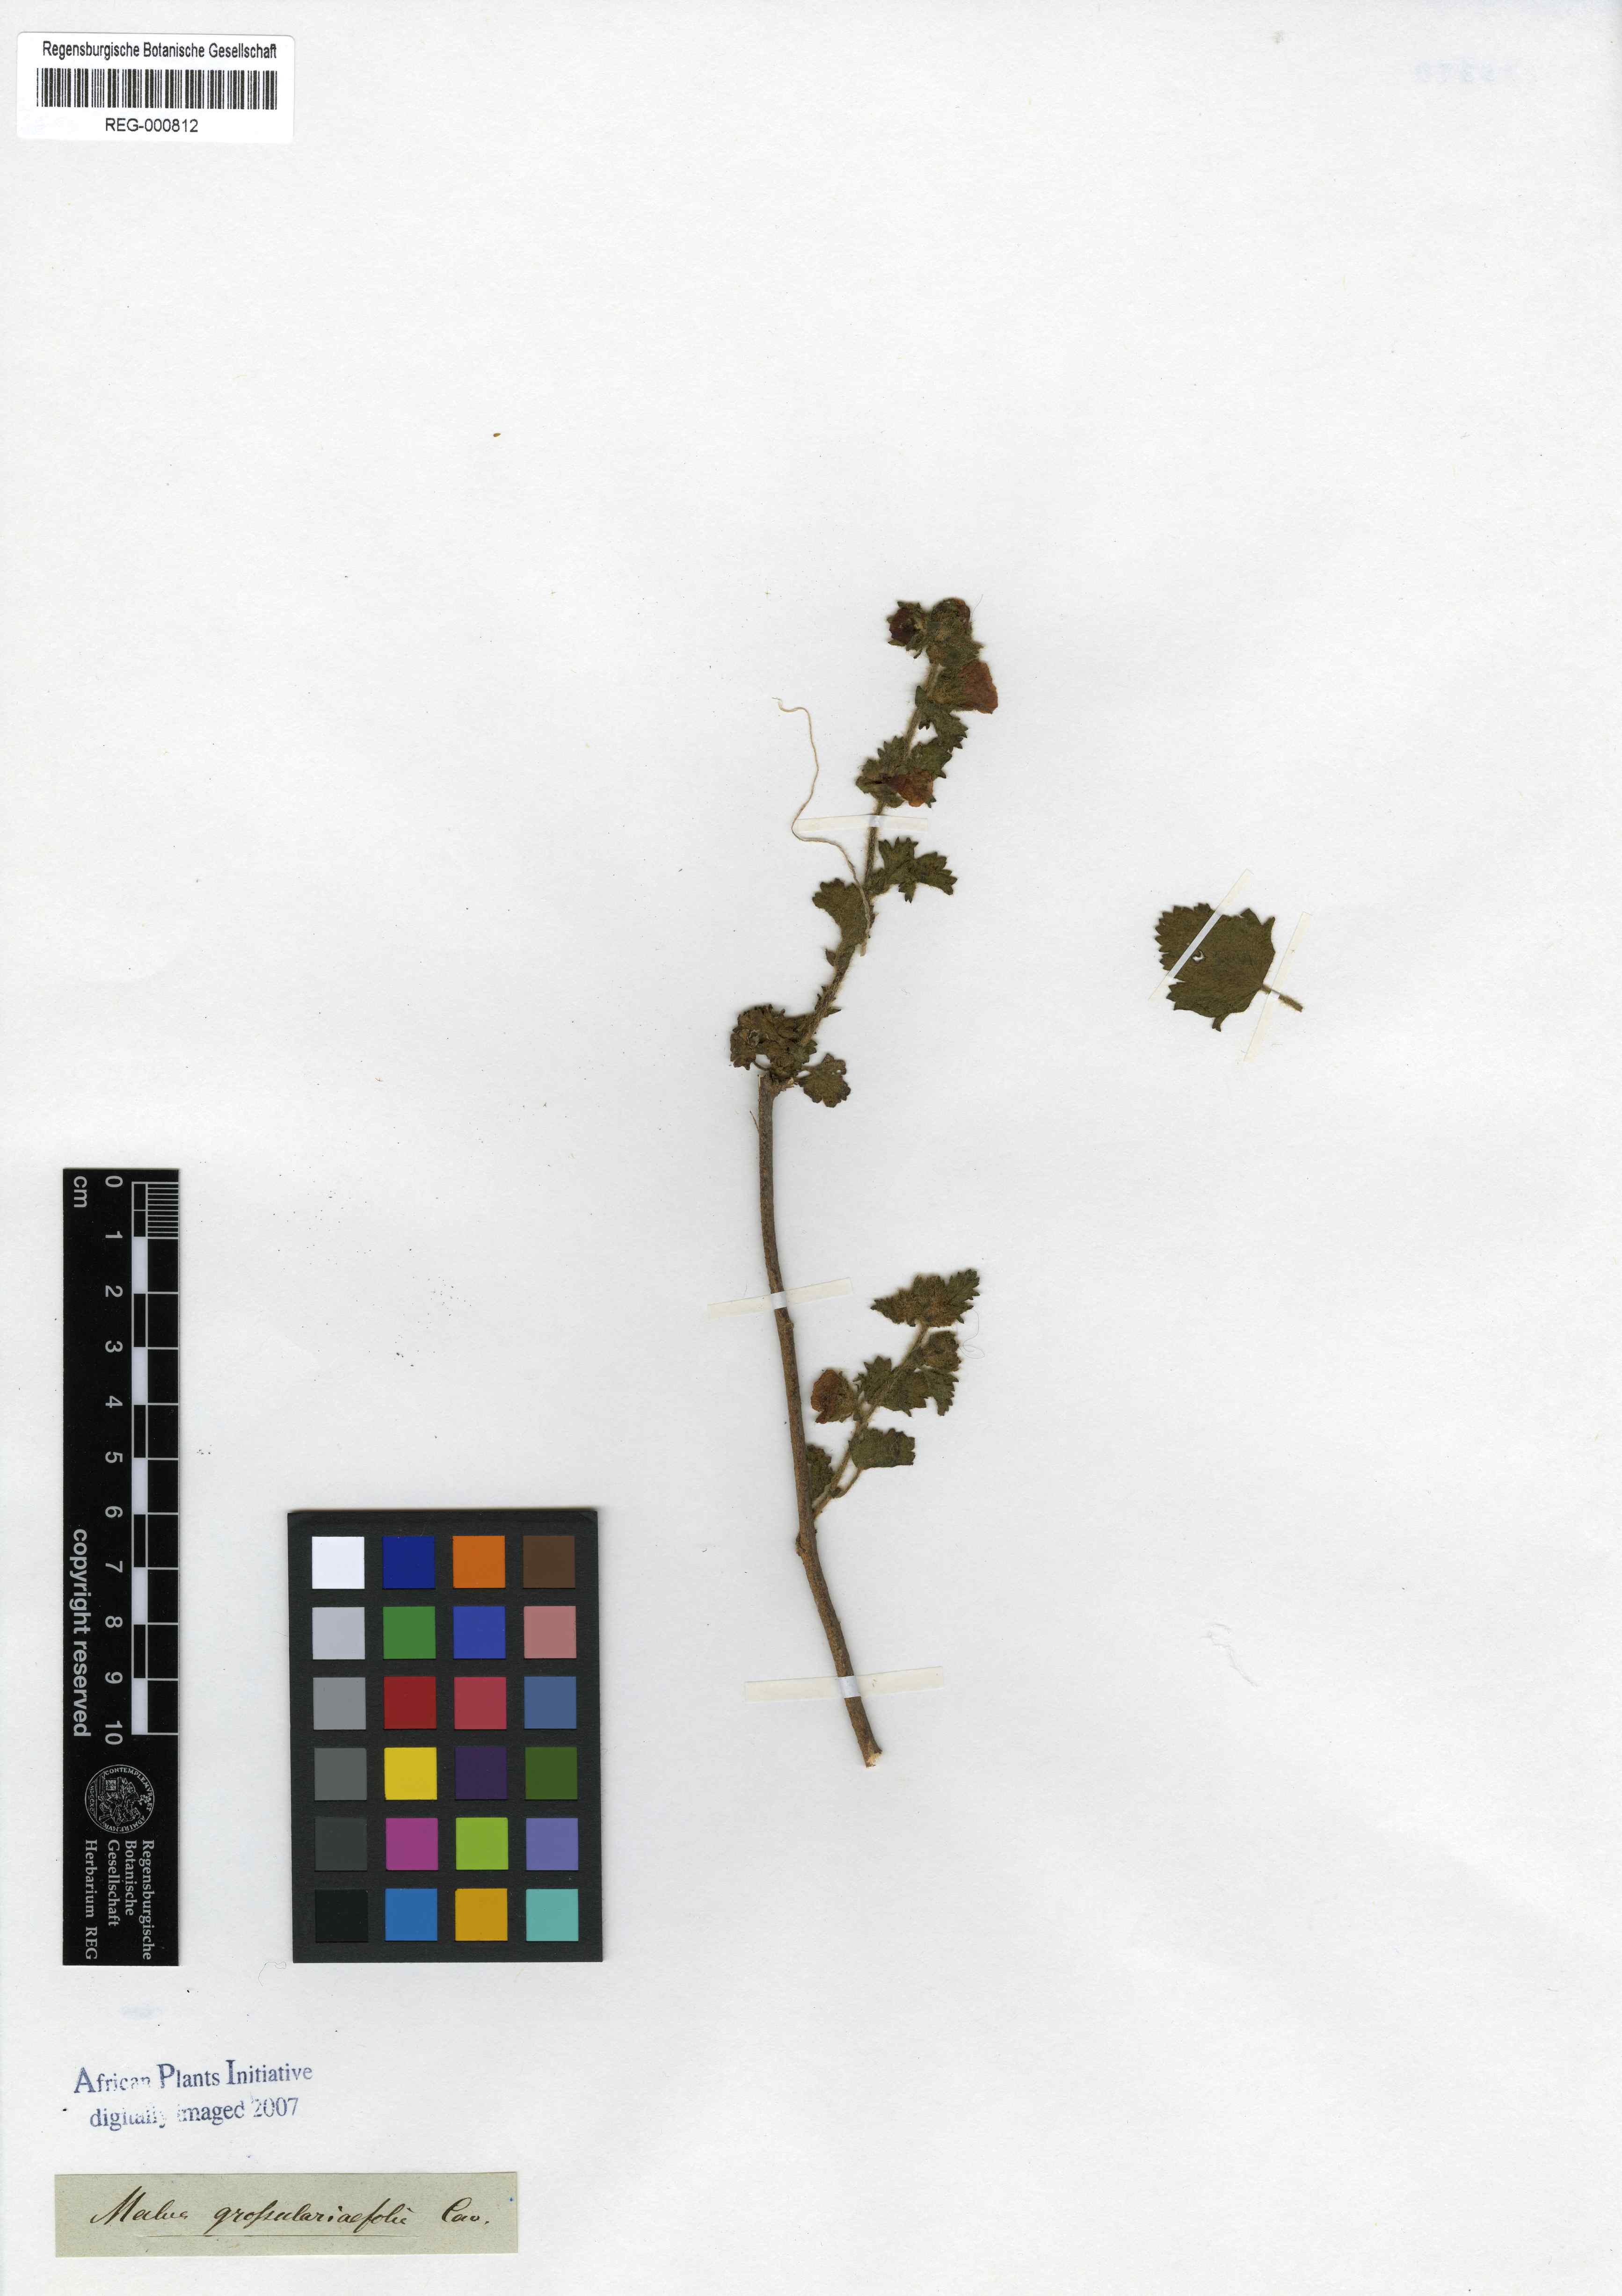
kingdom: Plantae
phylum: Tracheophyta
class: Magnoliopsida
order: Malvales
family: Malvaceae
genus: Anisodontea
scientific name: Anisodontea triloba
